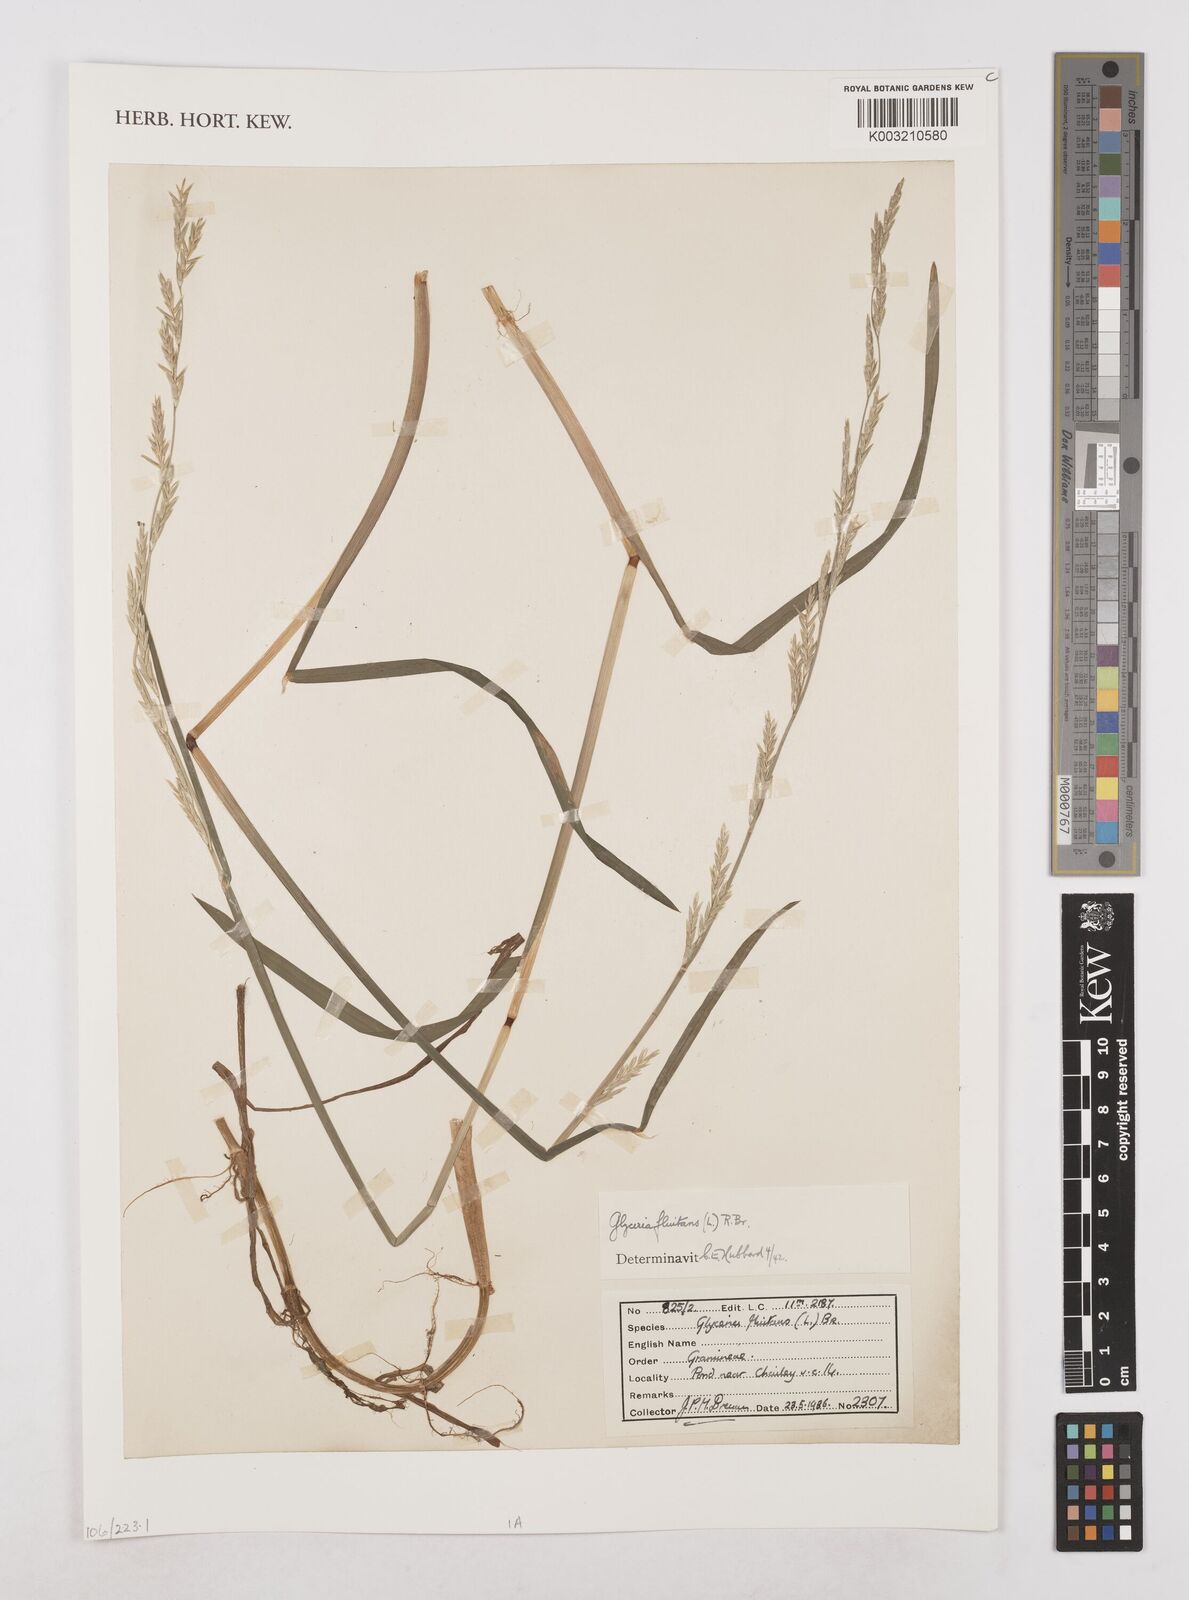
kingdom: Plantae
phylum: Tracheophyta
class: Liliopsida
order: Poales
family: Poaceae
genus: Glyceria
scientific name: Glyceria fluitans
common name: Floating sweet-grass
